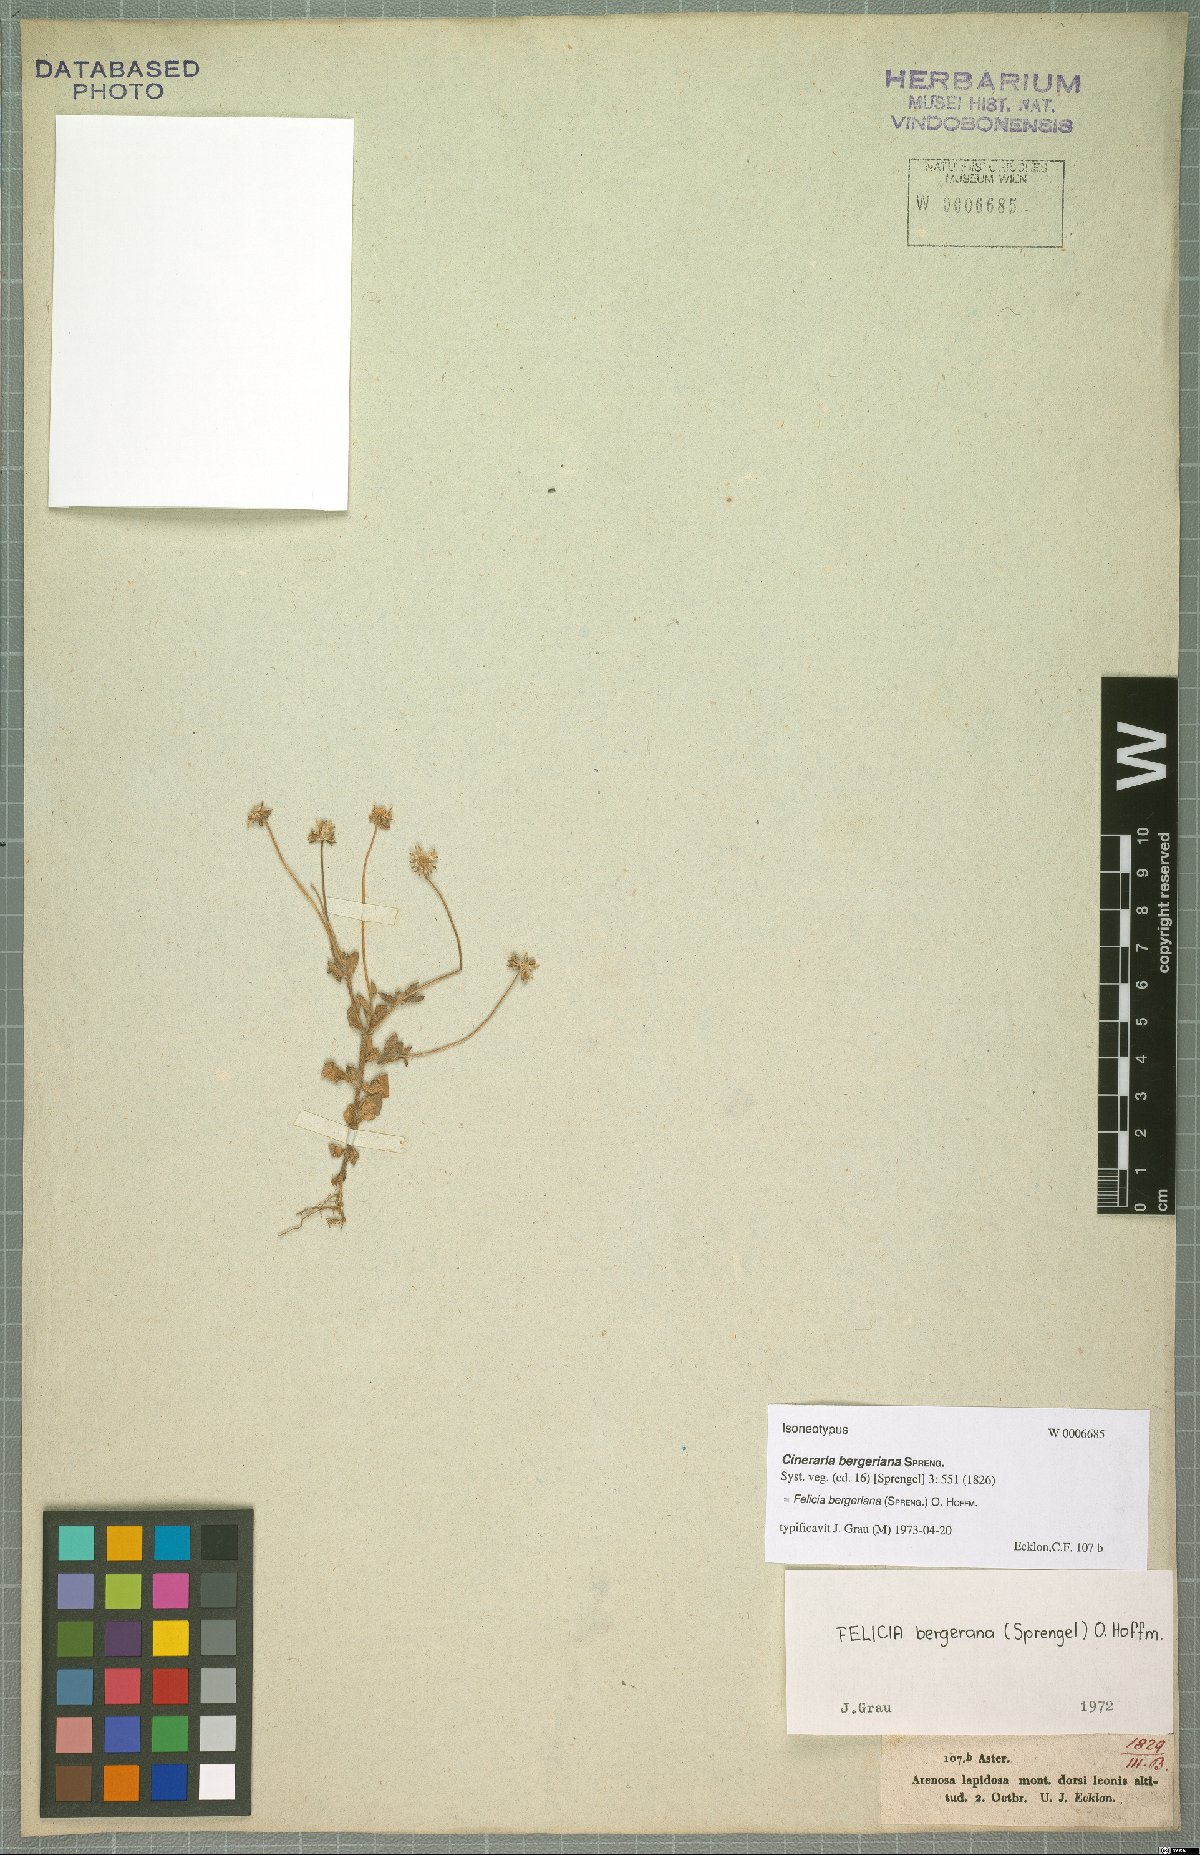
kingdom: Plantae
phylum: Tracheophyta
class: Magnoliopsida
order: Asterales
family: Asteraceae
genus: Felicia
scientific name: Felicia bergeriana
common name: Kingfisher daisy
